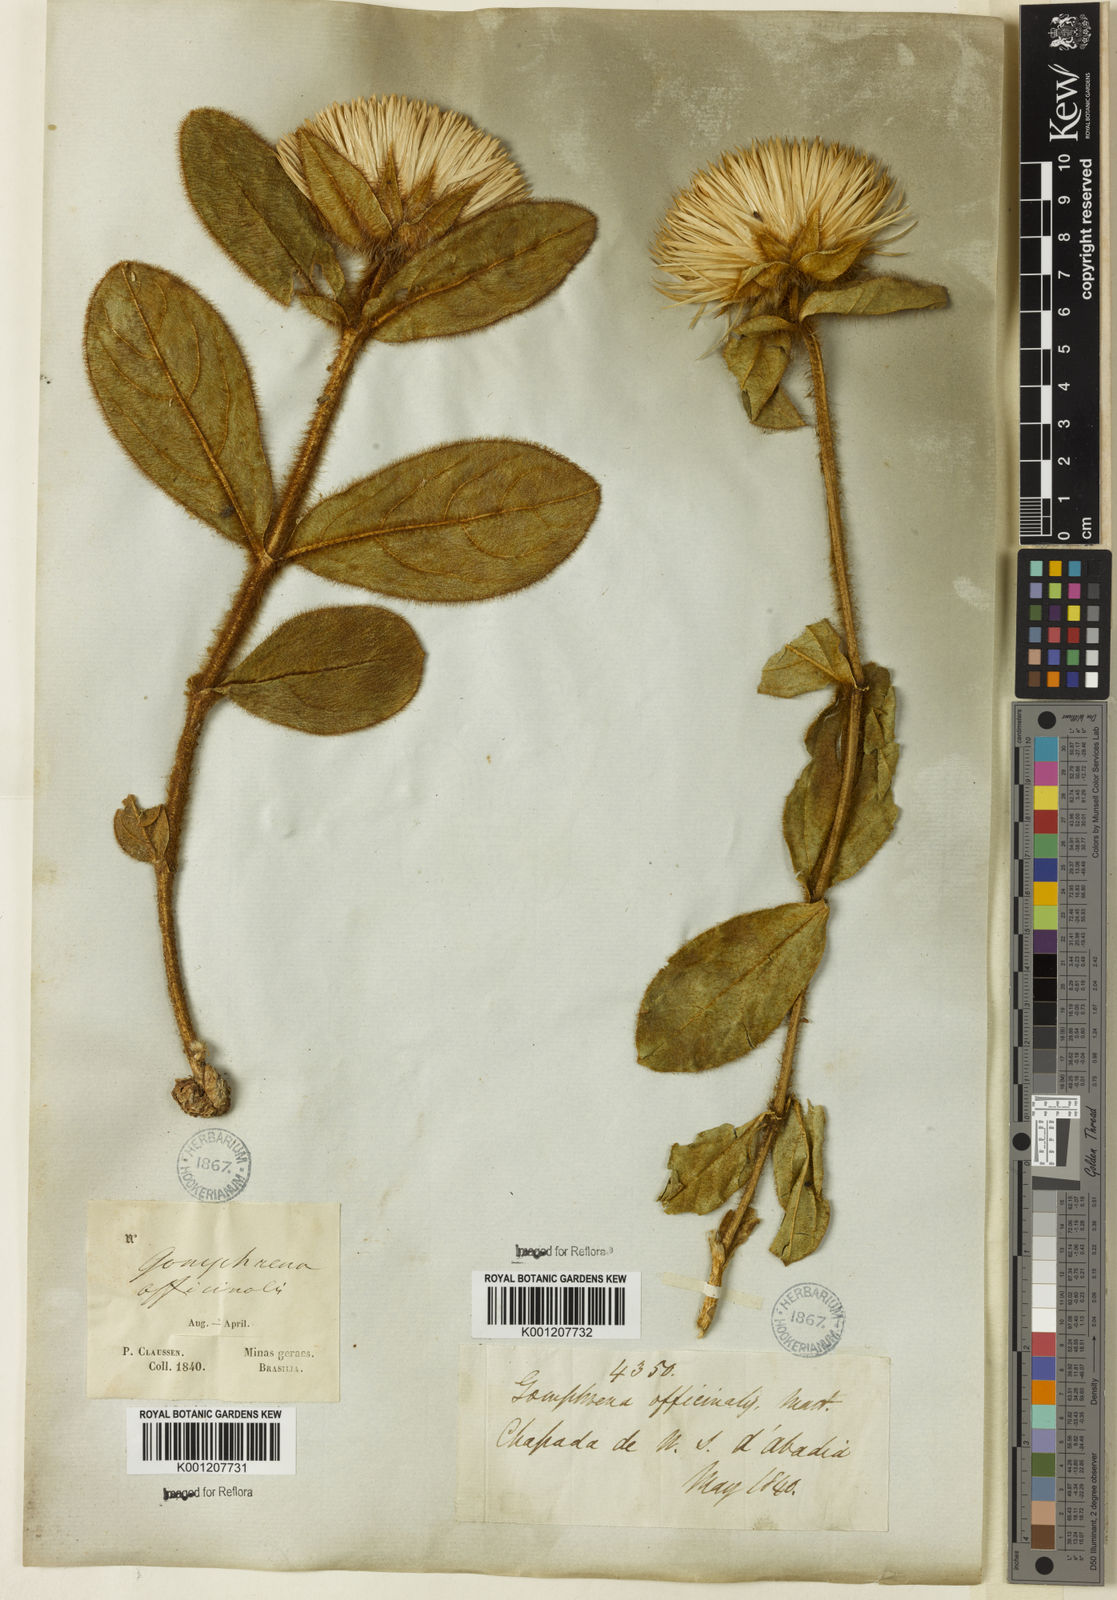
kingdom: Plantae
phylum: Tracheophyta
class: Magnoliopsida
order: Caryophyllales
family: Amaranthaceae
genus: Gomphrena
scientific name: Gomphrena arborescens
